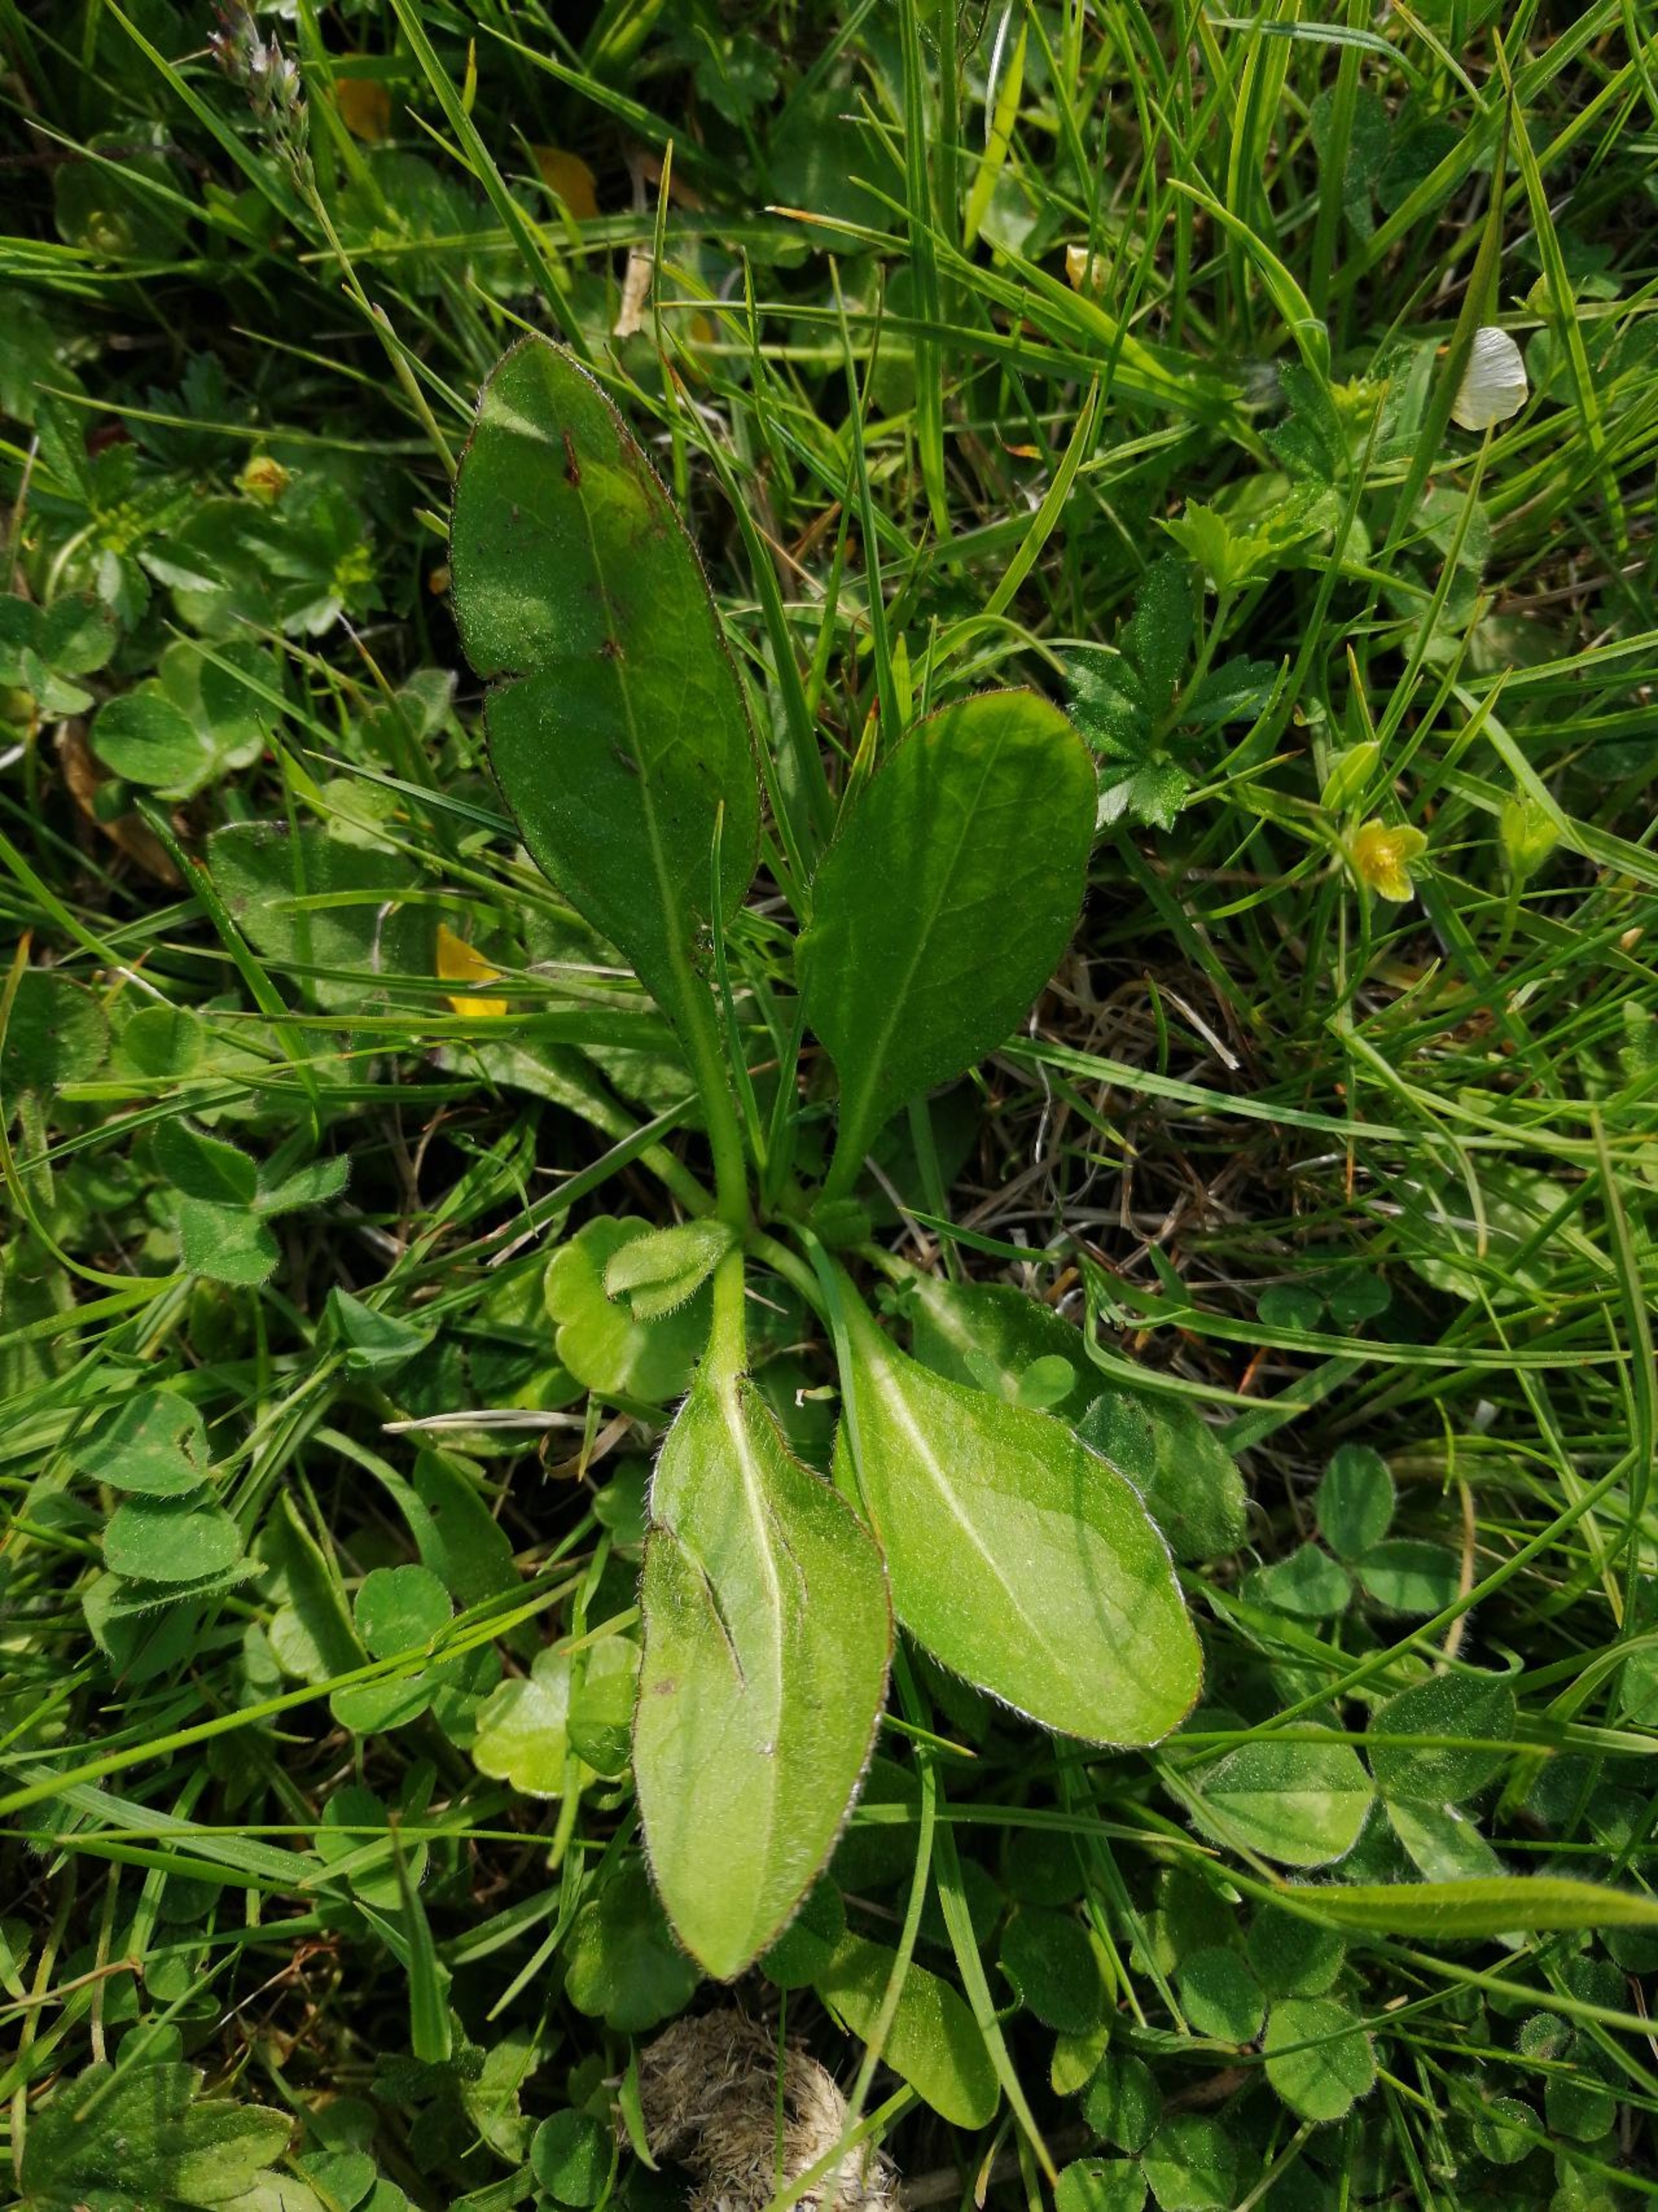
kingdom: Plantae
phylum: Tracheophyta
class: Magnoliopsida
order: Dipsacales
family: Caprifoliaceae
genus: Succisa
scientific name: Succisa pratensis
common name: Djævelsbid
